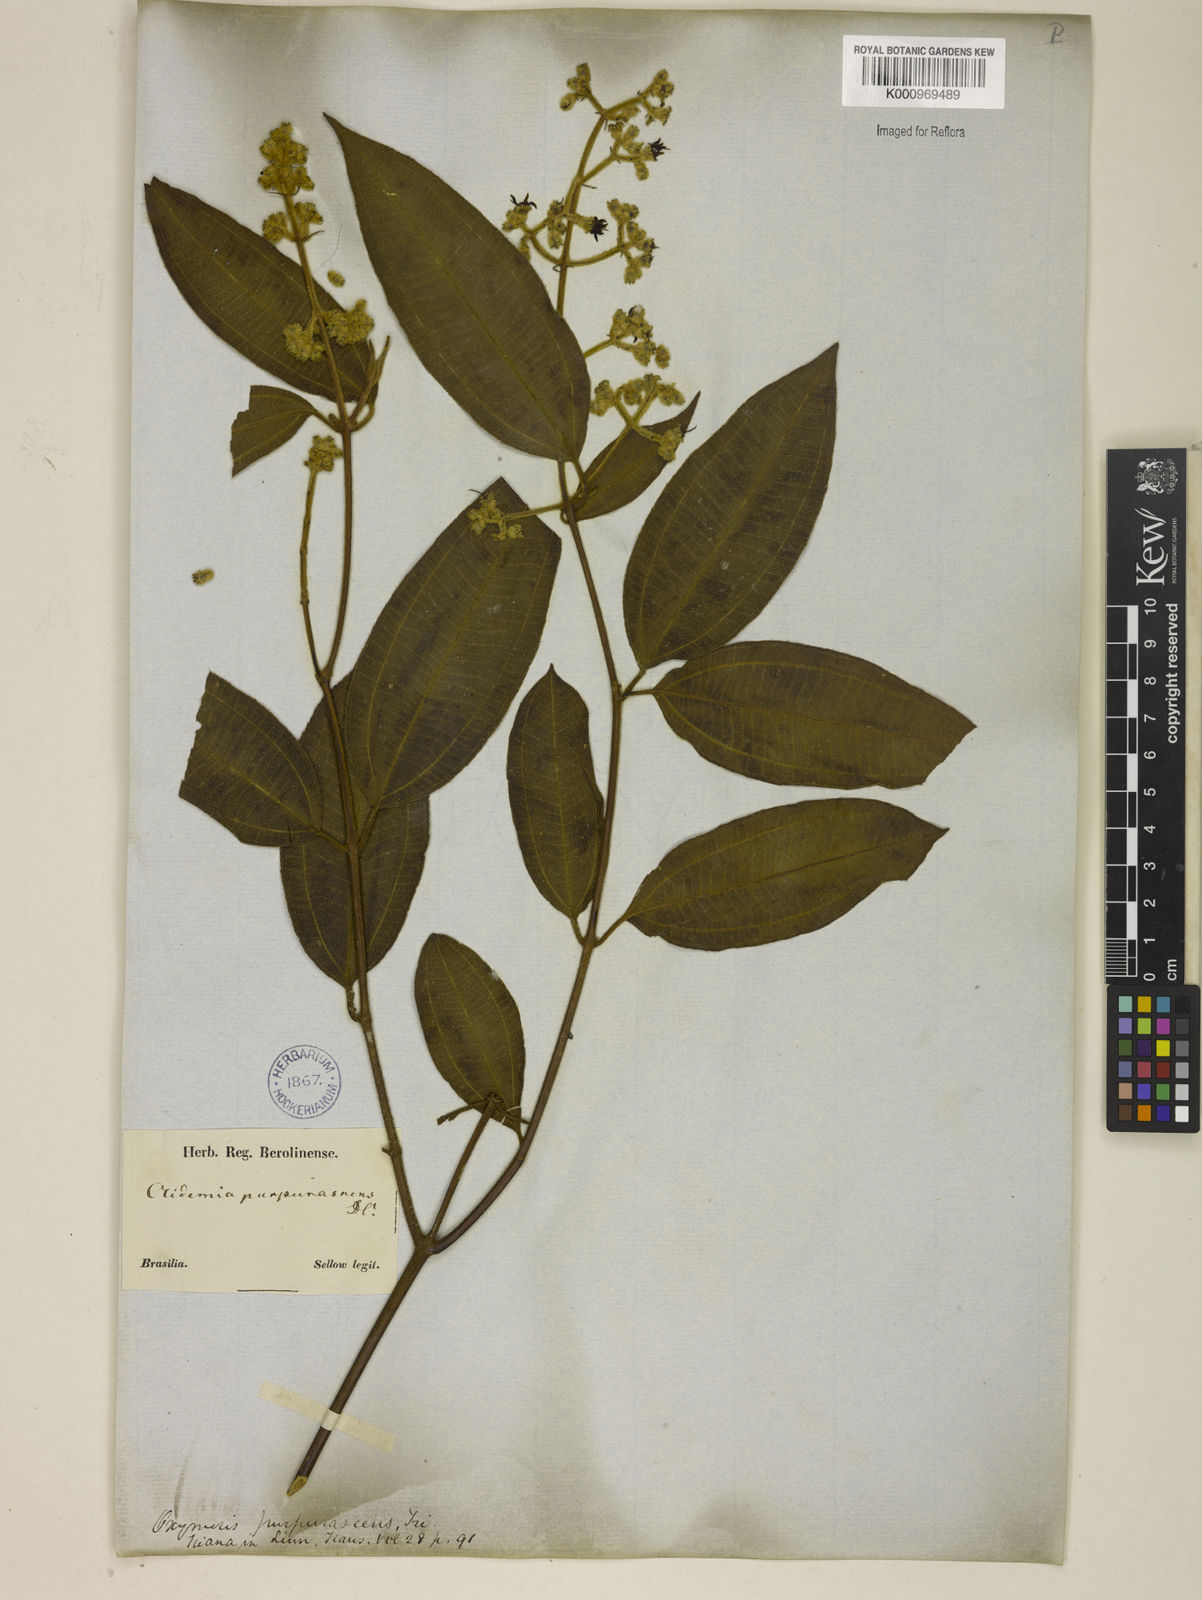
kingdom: Plantae
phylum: Tracheophyta
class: Magnoliopsida
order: Myrtales
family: Melastomataceae
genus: Miconia
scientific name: Miconia microstachya
